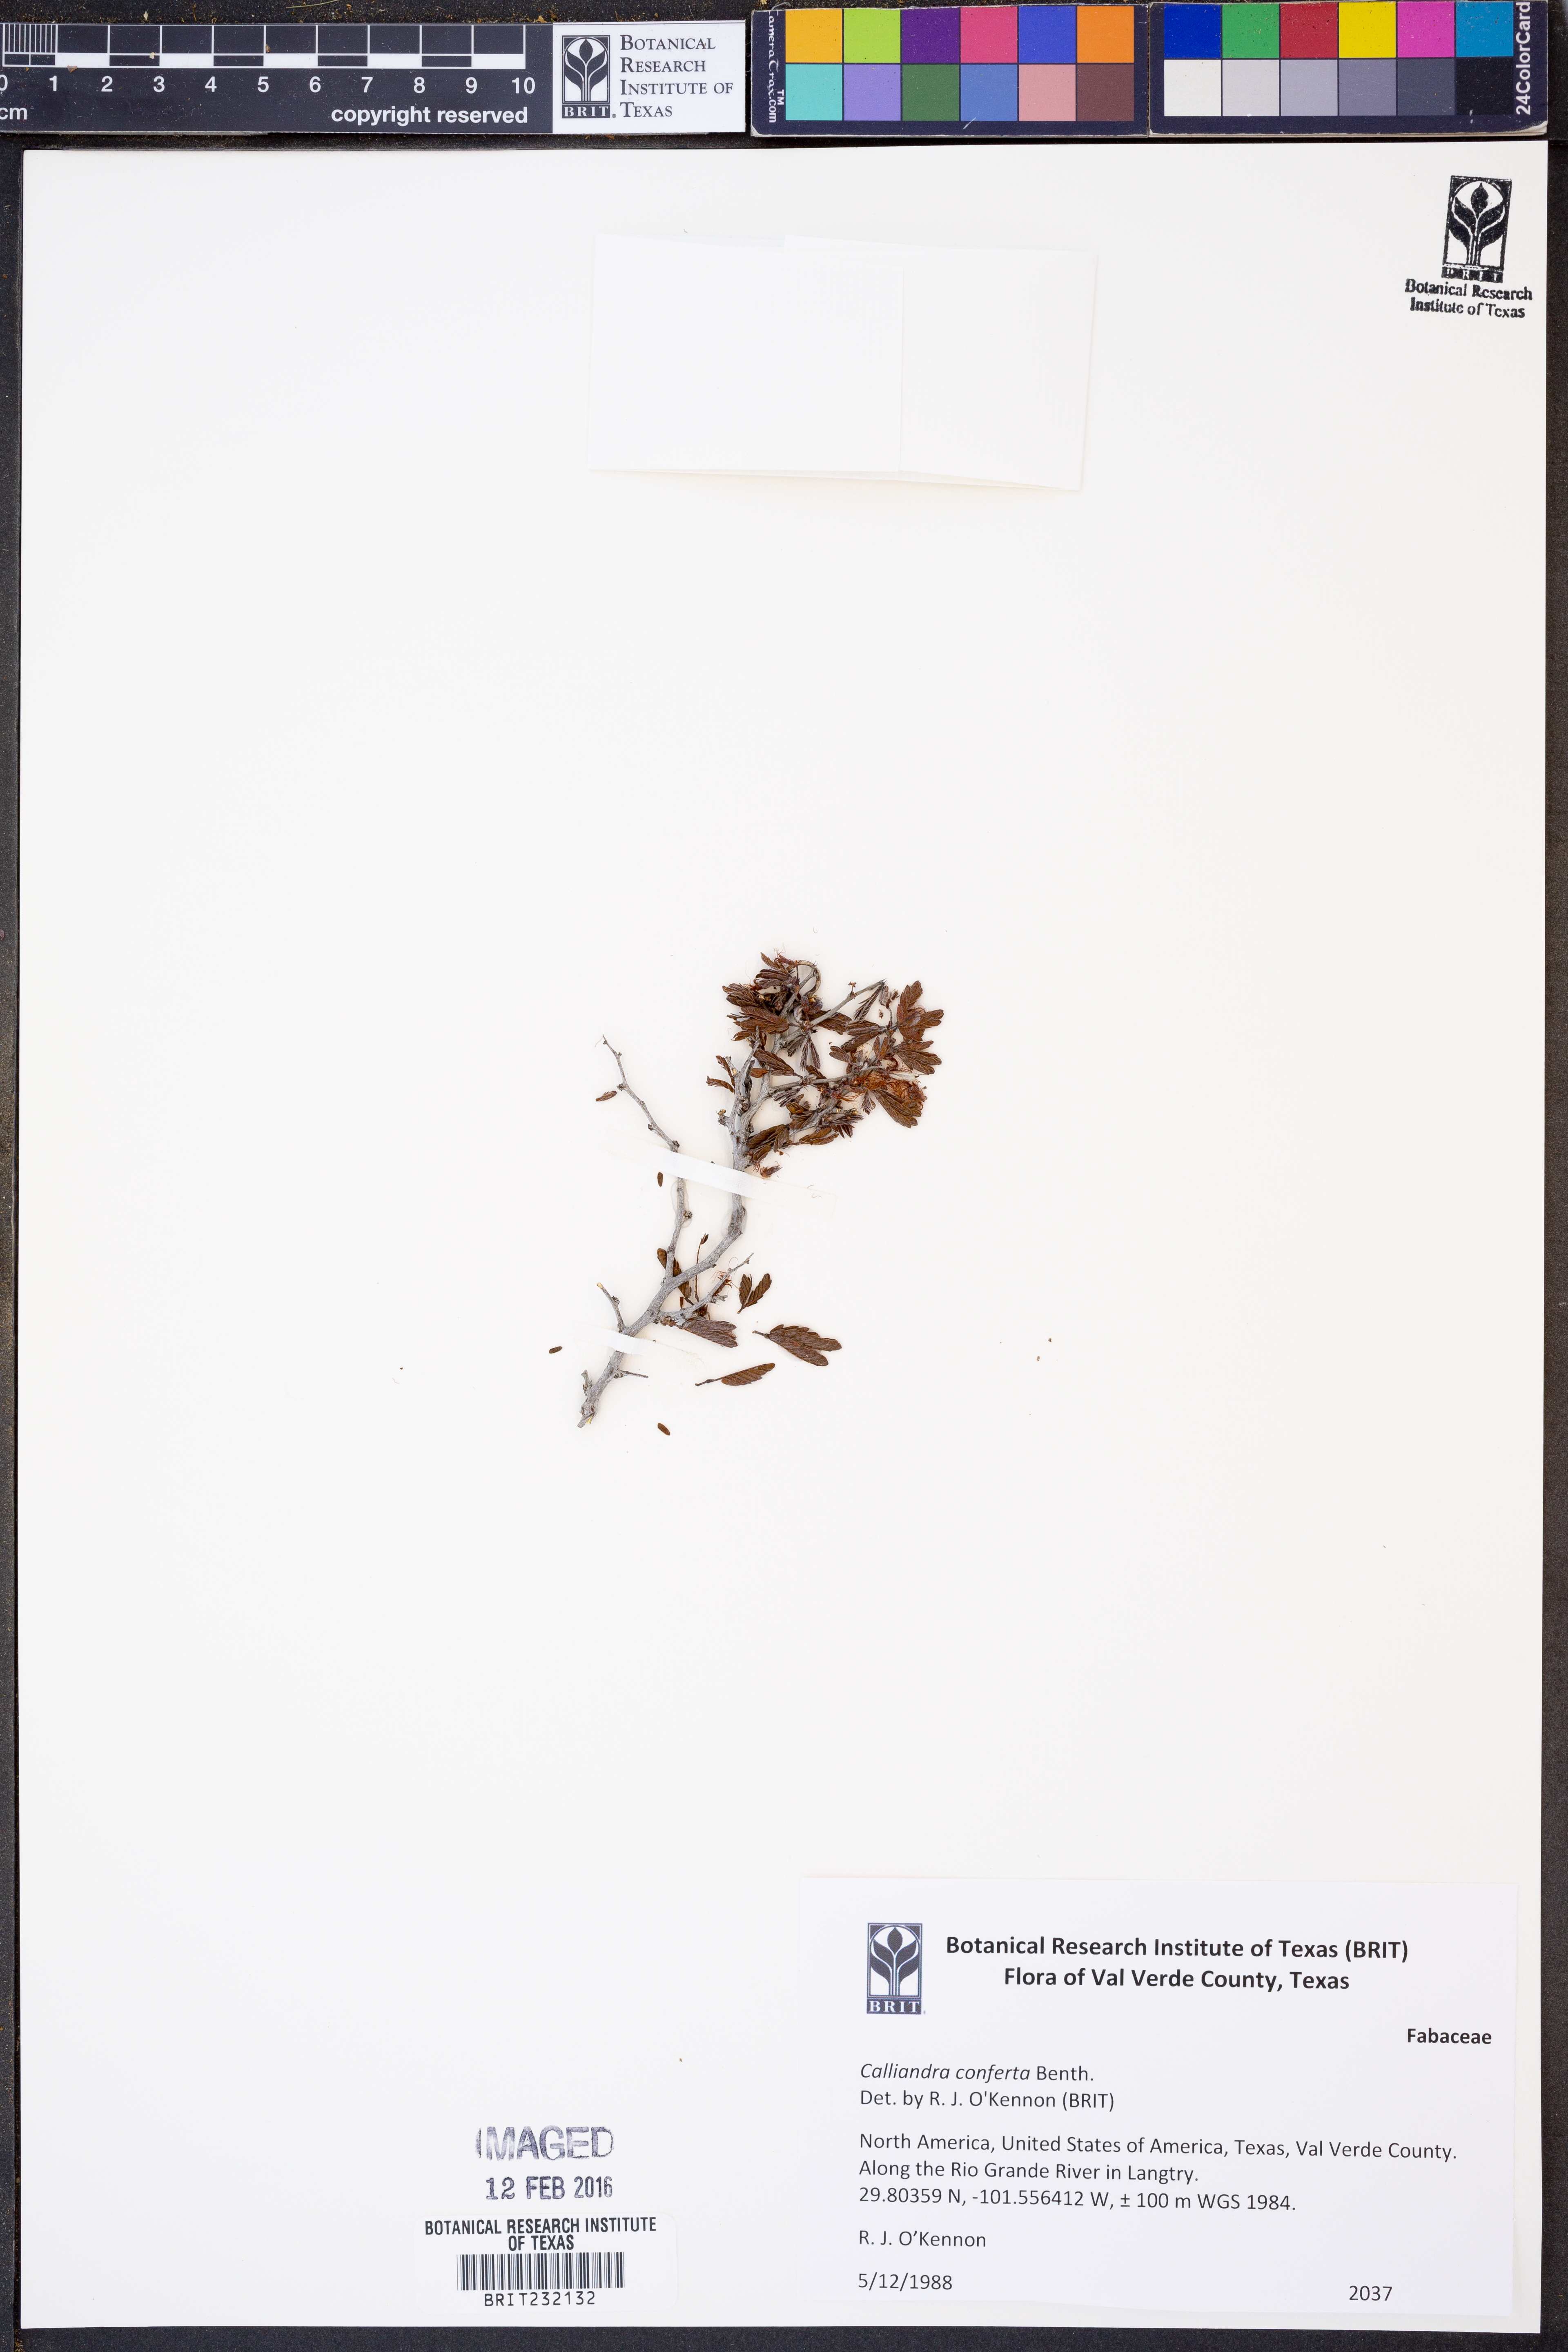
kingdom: Plantae
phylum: Tracheophyta
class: Magnoliopsida
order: Fabales
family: Fabaceae
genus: Calliandra
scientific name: Calliandra conferta
